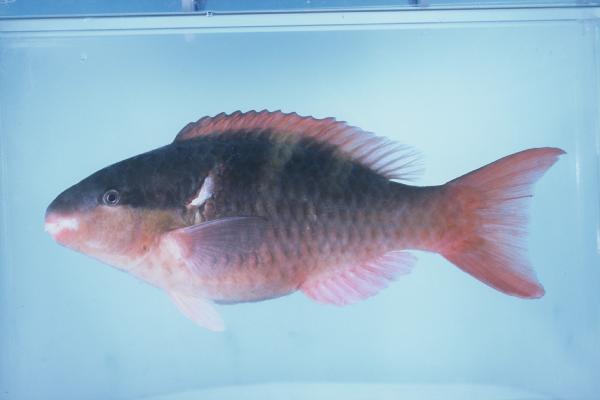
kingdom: Animalia
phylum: Chordata
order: Perciformes
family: Scaridae
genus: Scarus
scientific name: Scarus scaber
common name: Dusky-capped parrotfish
